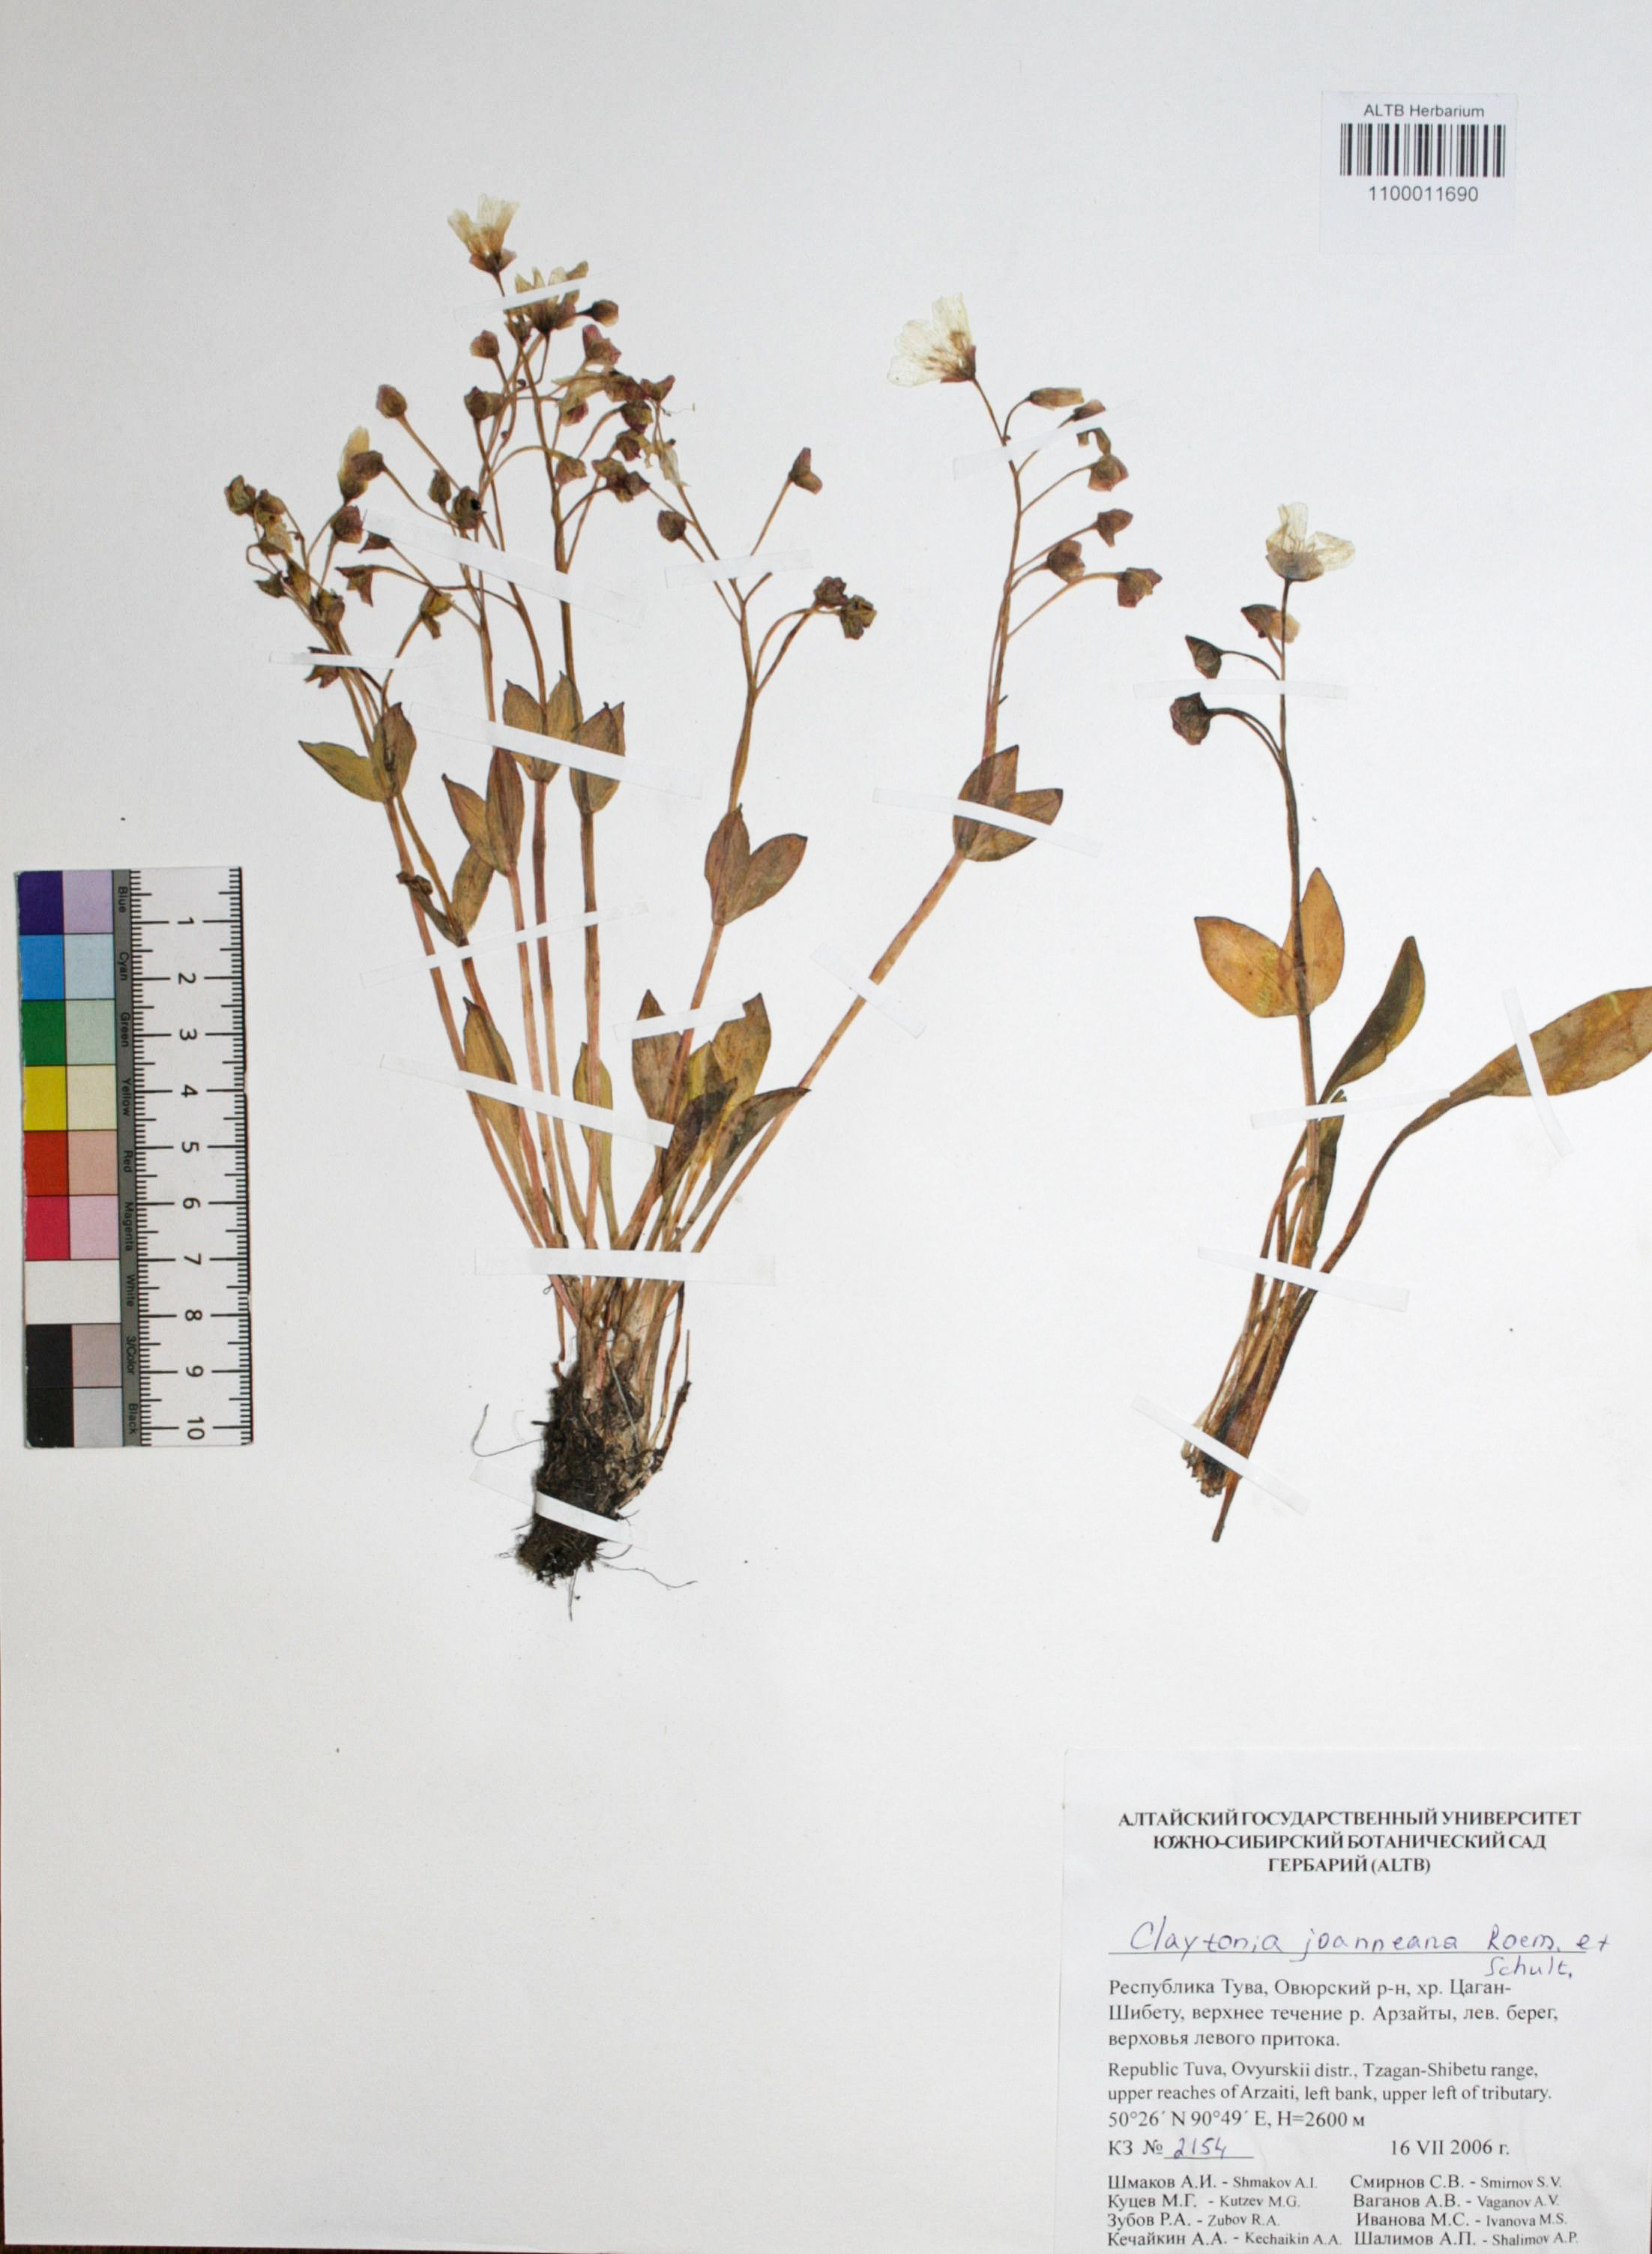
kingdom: Plantae
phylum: Tracheophyta
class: Magnoliopsida
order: Caryophyllales
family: Montiaceae
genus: Claytonia
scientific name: Claytonia joanneana
